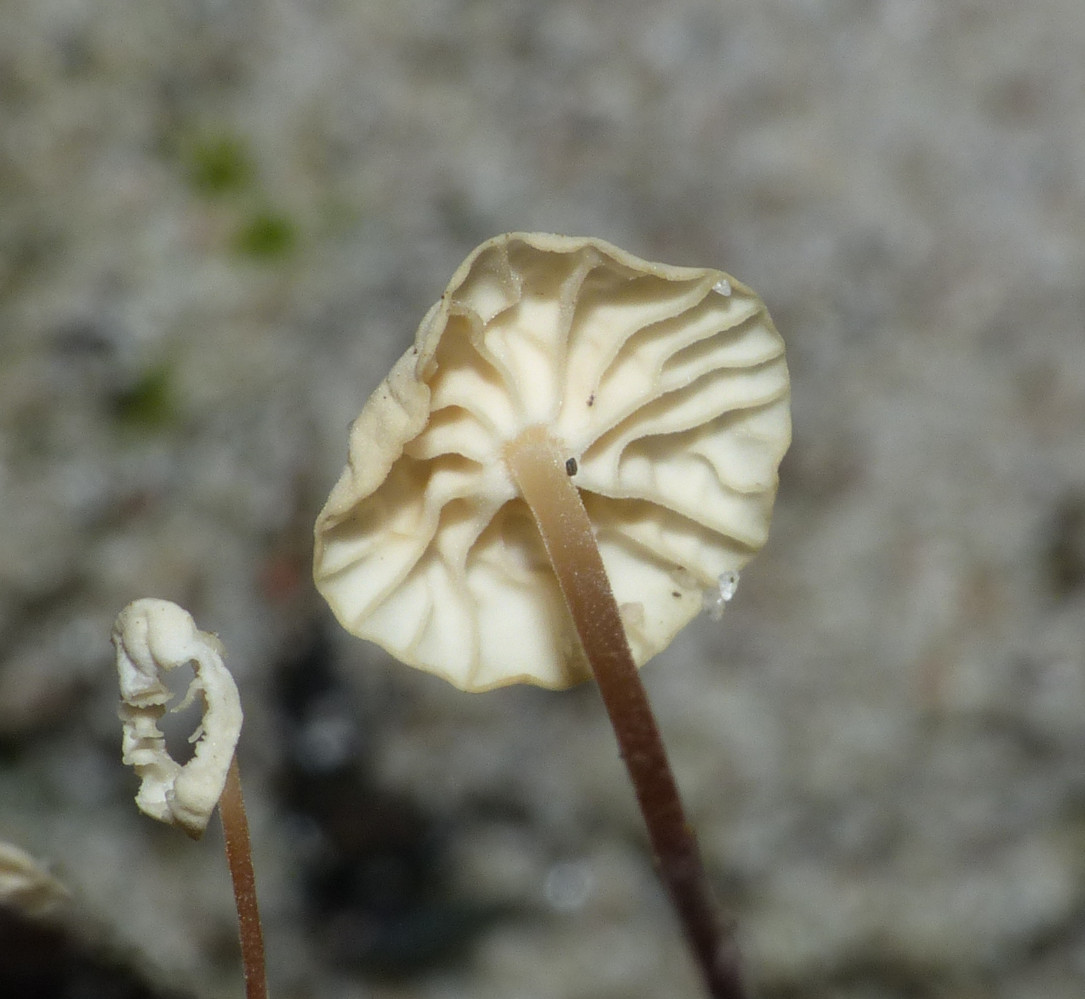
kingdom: Fungi
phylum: Basidiomycota
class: Agaricomycetes
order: Agaricales
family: Marasmiaceae
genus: Marasmius
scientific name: Marasmius epiphyllus
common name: blad-bruskhat
